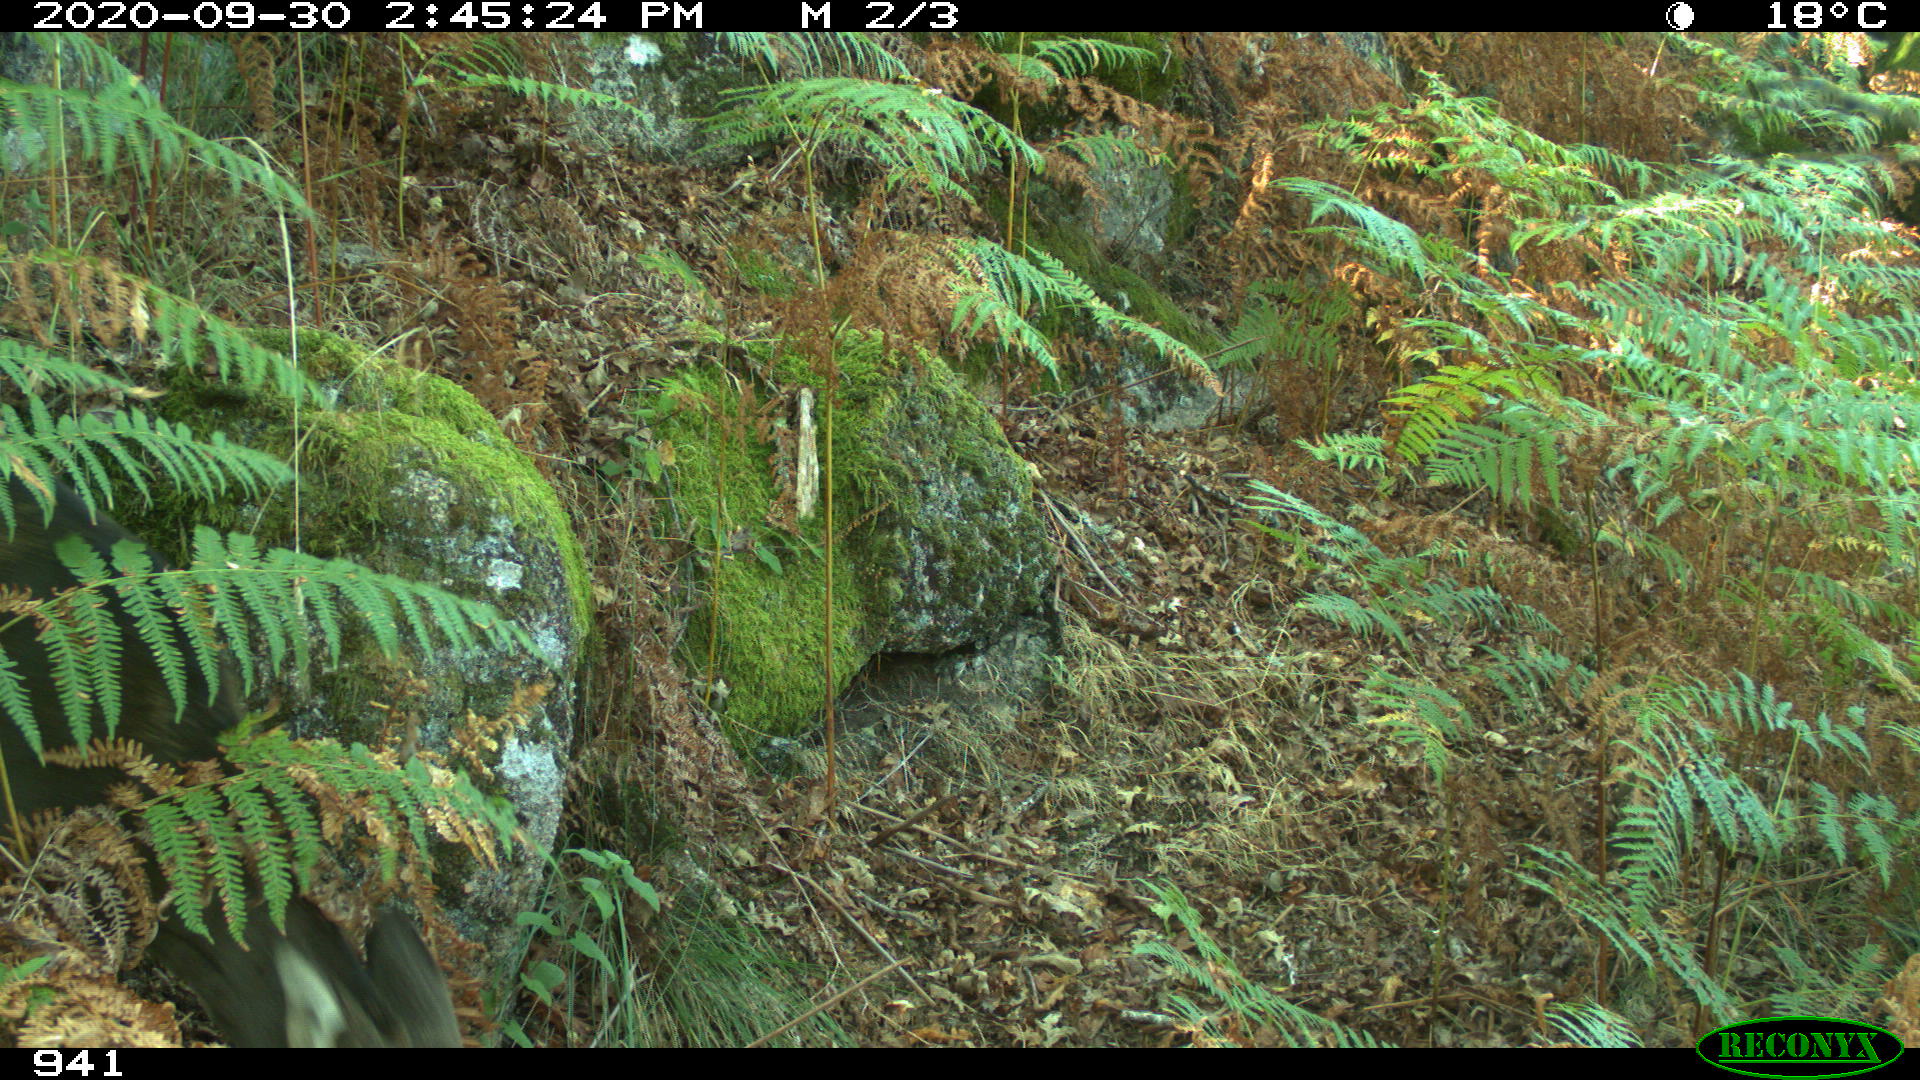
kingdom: Animalia
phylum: Chordata
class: Mammalia
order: Artiodactyla
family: Cervidae
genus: Capreolus
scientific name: Capreolus capreolus
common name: Western roe deer
